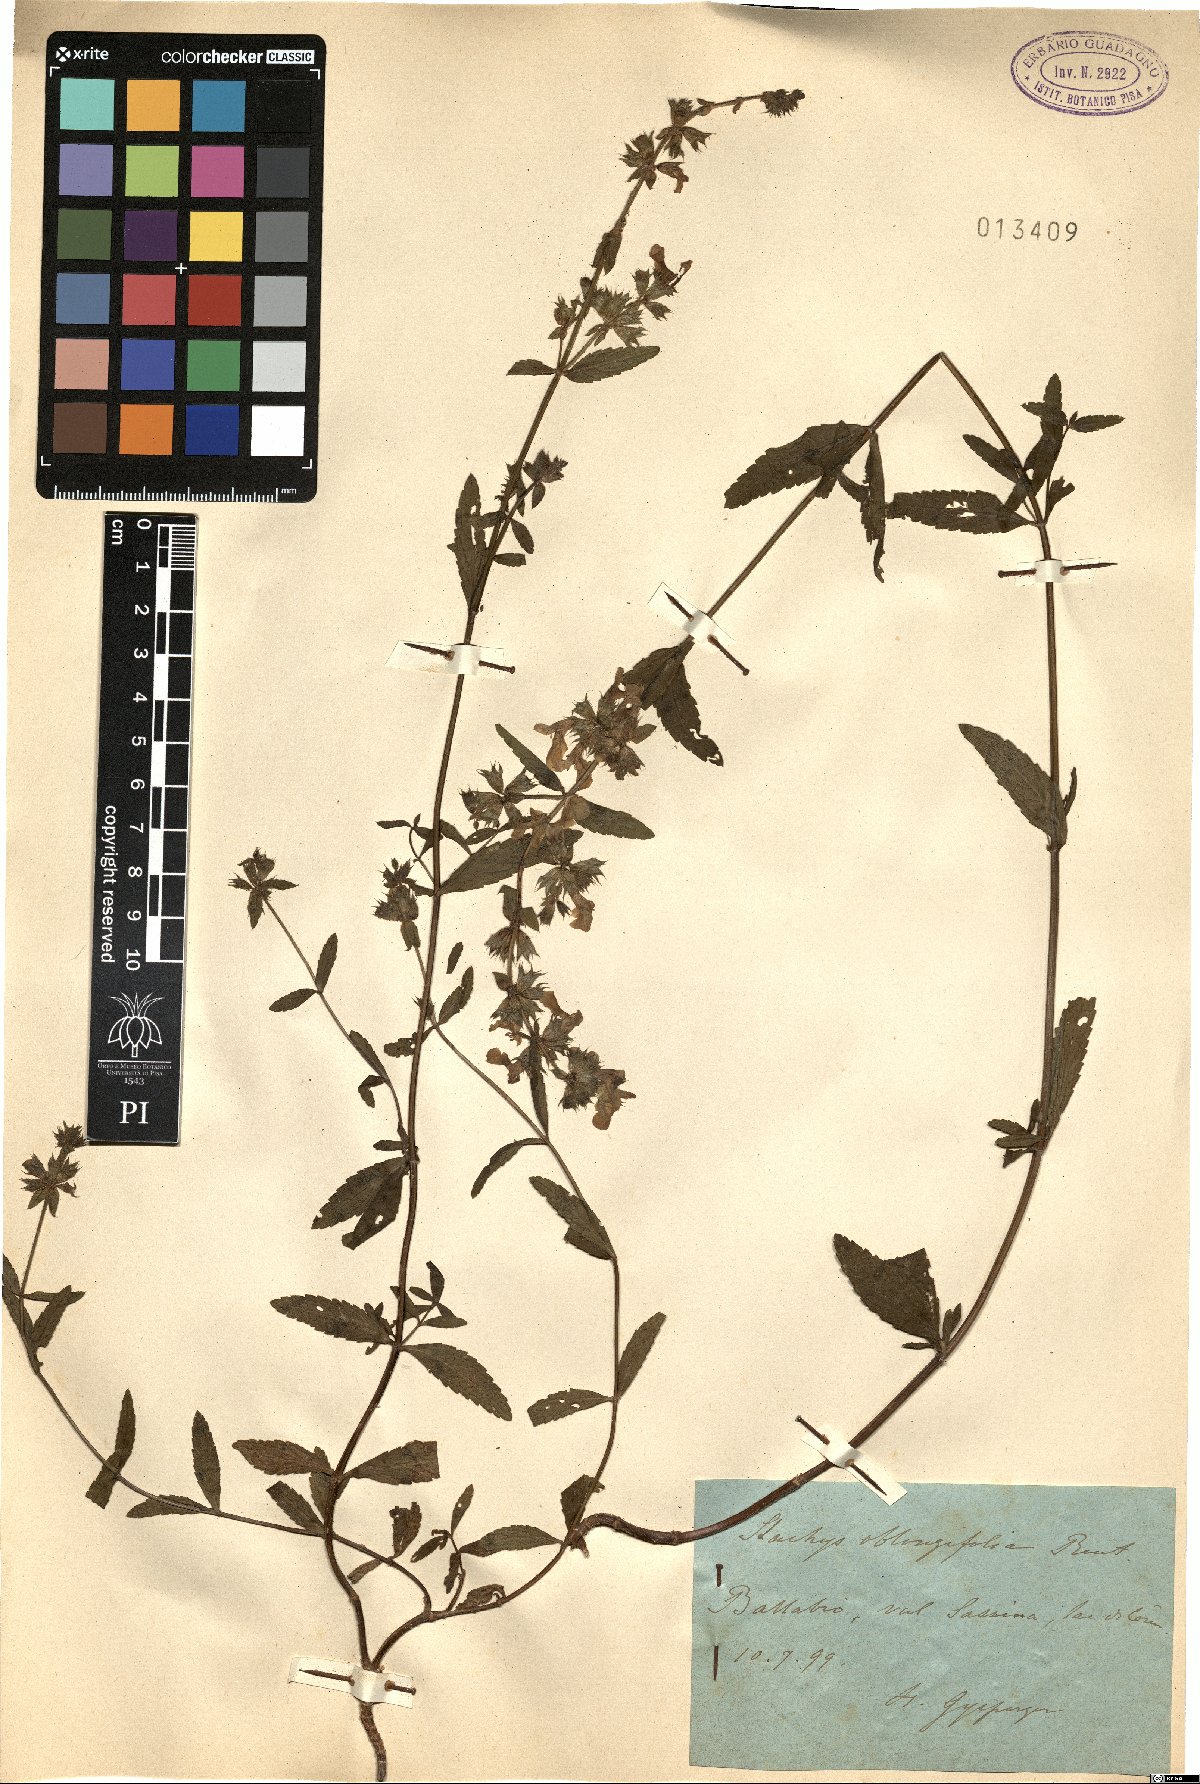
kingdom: Plantae
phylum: Tracheophyta
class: Magnoliopsida
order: Lamiales
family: Lamiaceae
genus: Stachys
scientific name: Stachys oblongifolia
